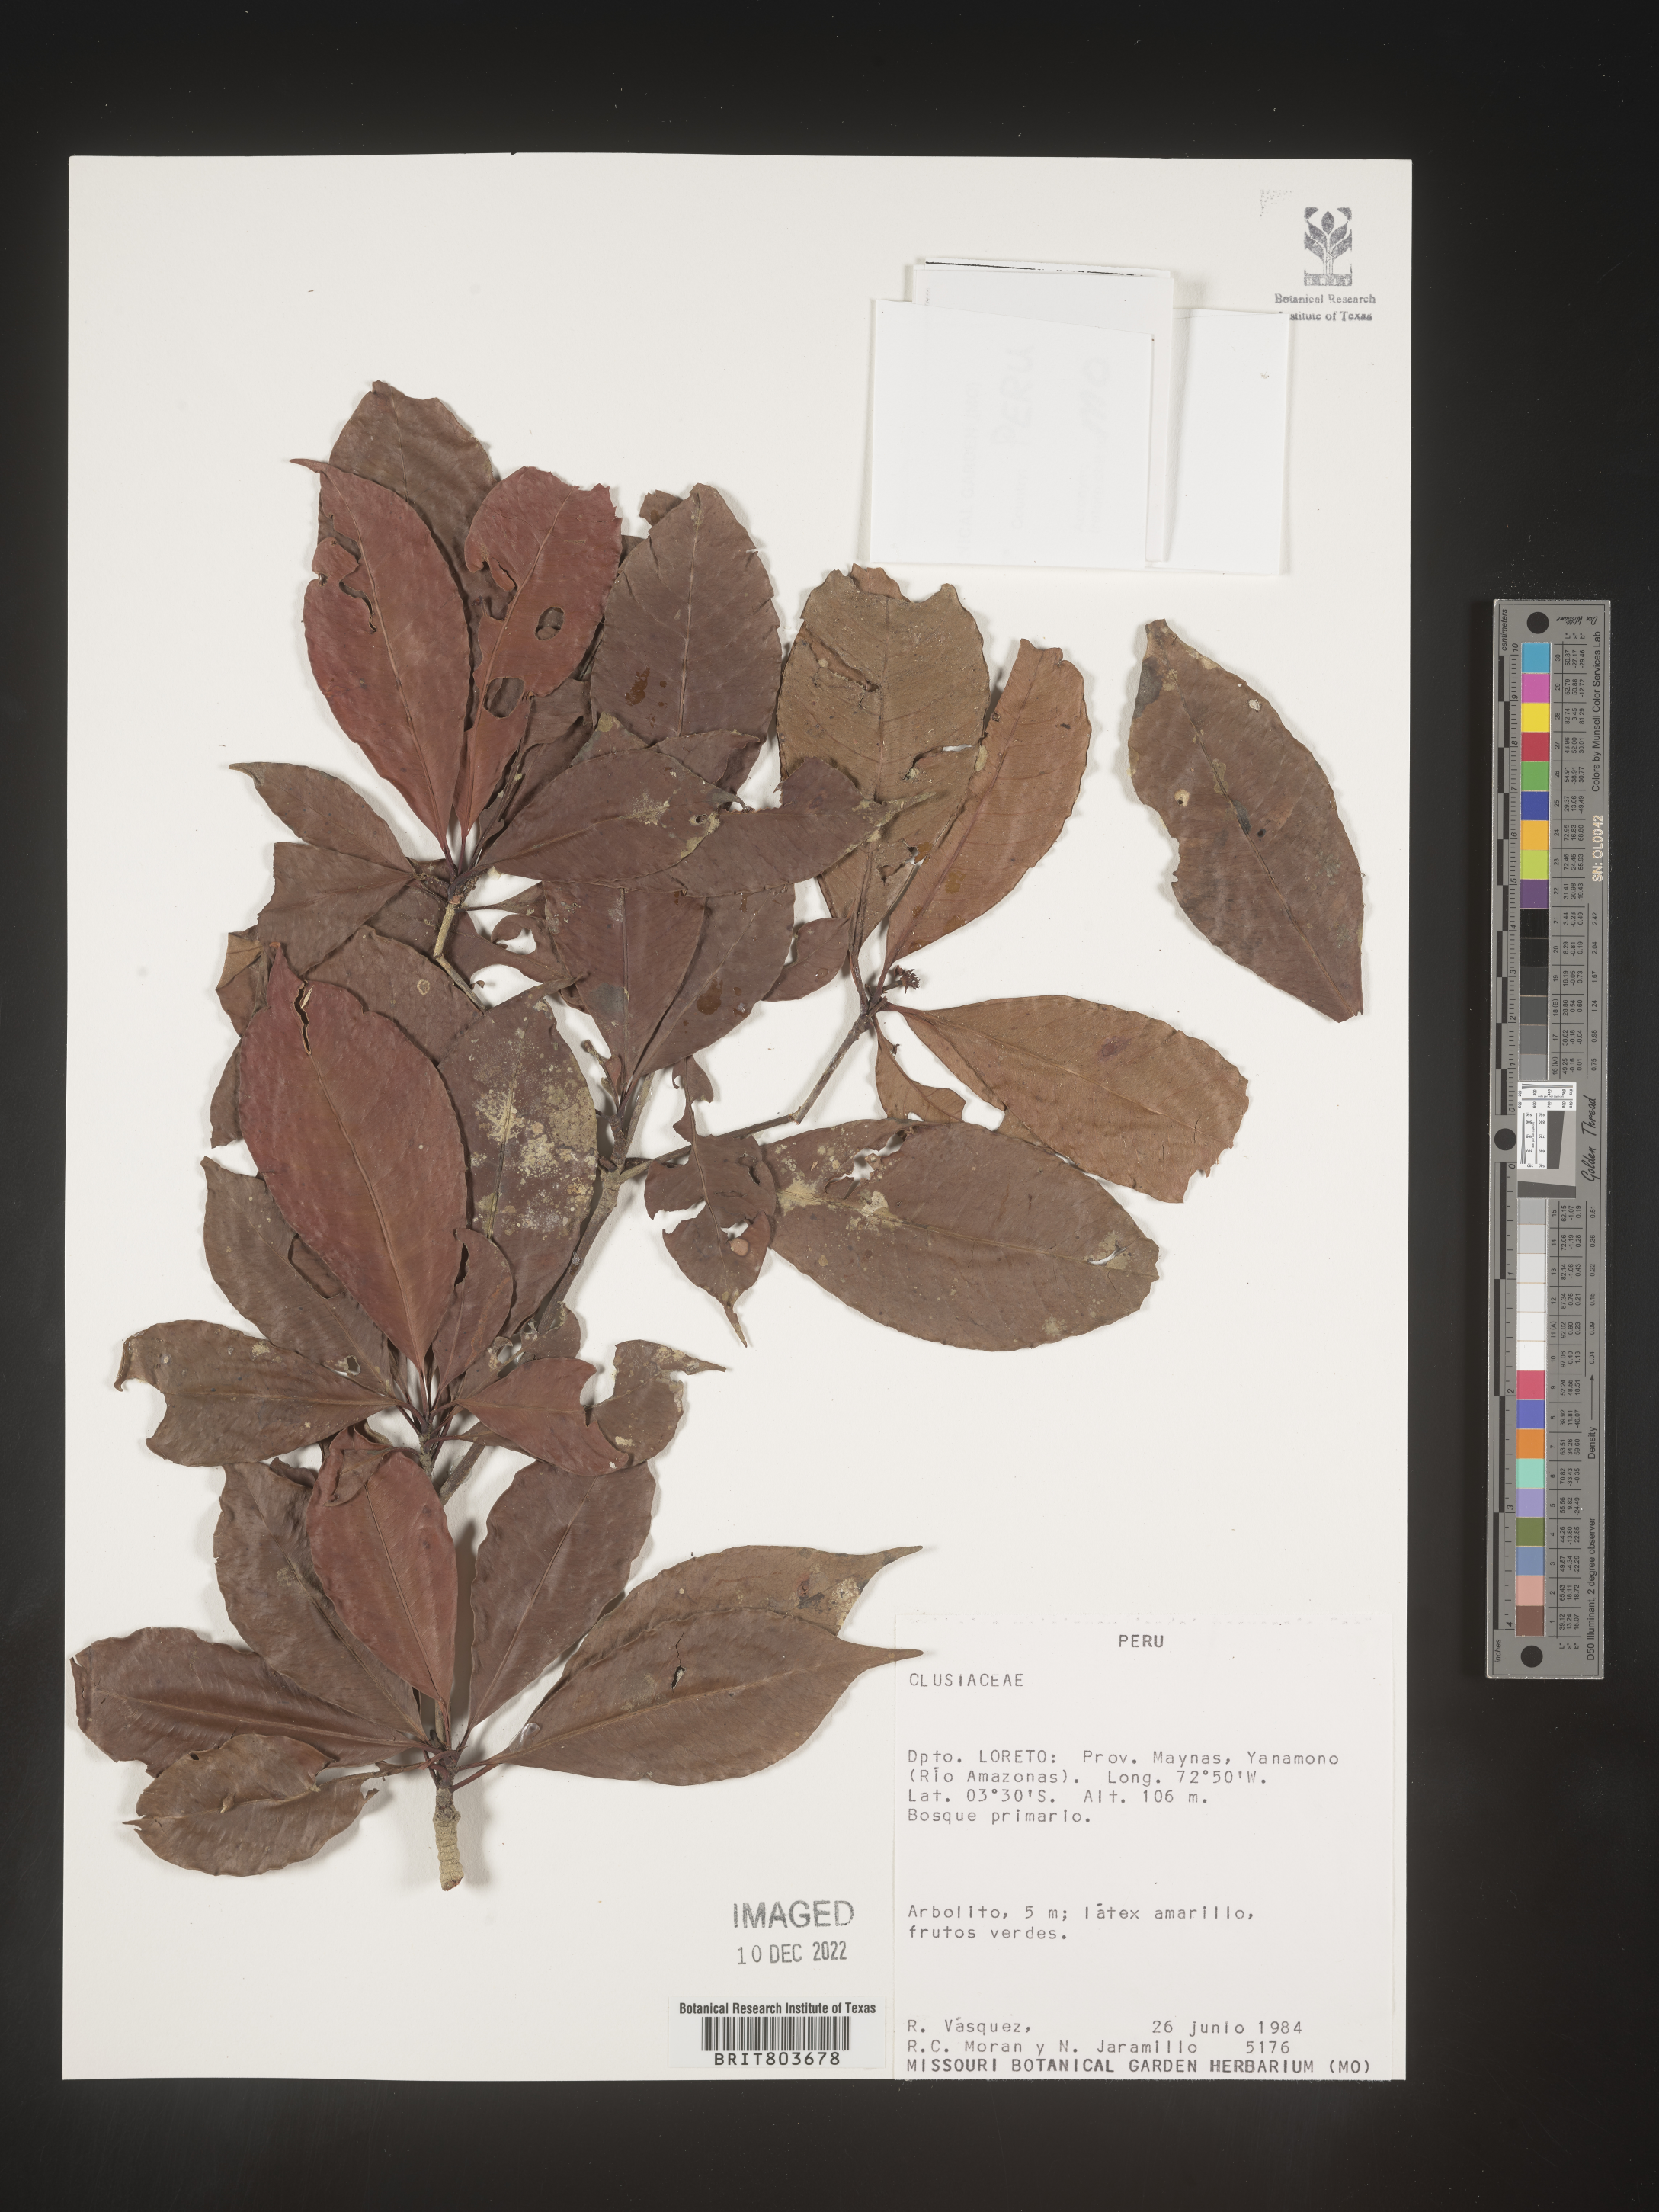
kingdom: Plantae
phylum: Tracheophyta
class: Magnoliopsida
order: Malpighiales
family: Clusiaceae
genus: Tovomita
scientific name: Tovomita
